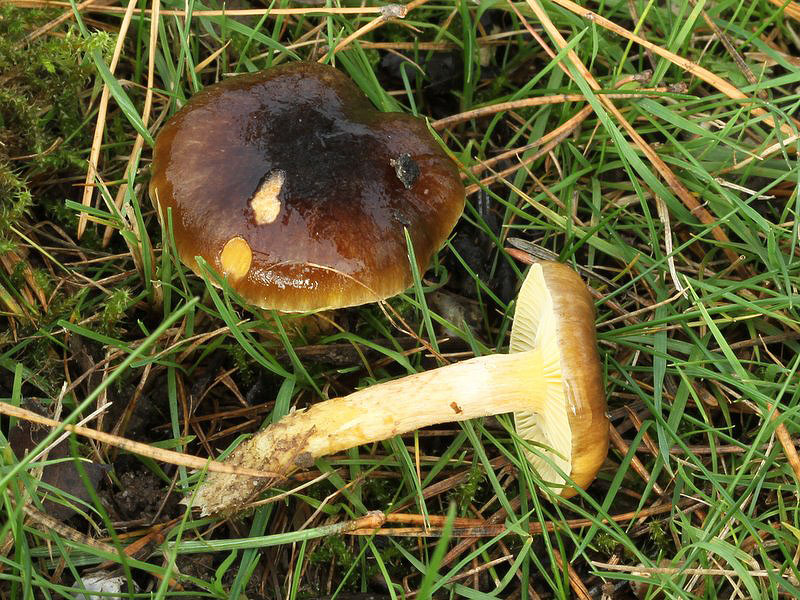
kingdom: Fungi
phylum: Basidiomycota
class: Agaricomycetes
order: Agaricales
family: Hygrophoraceae
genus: Hygrophorus
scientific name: Hygrophorus hypothejus
